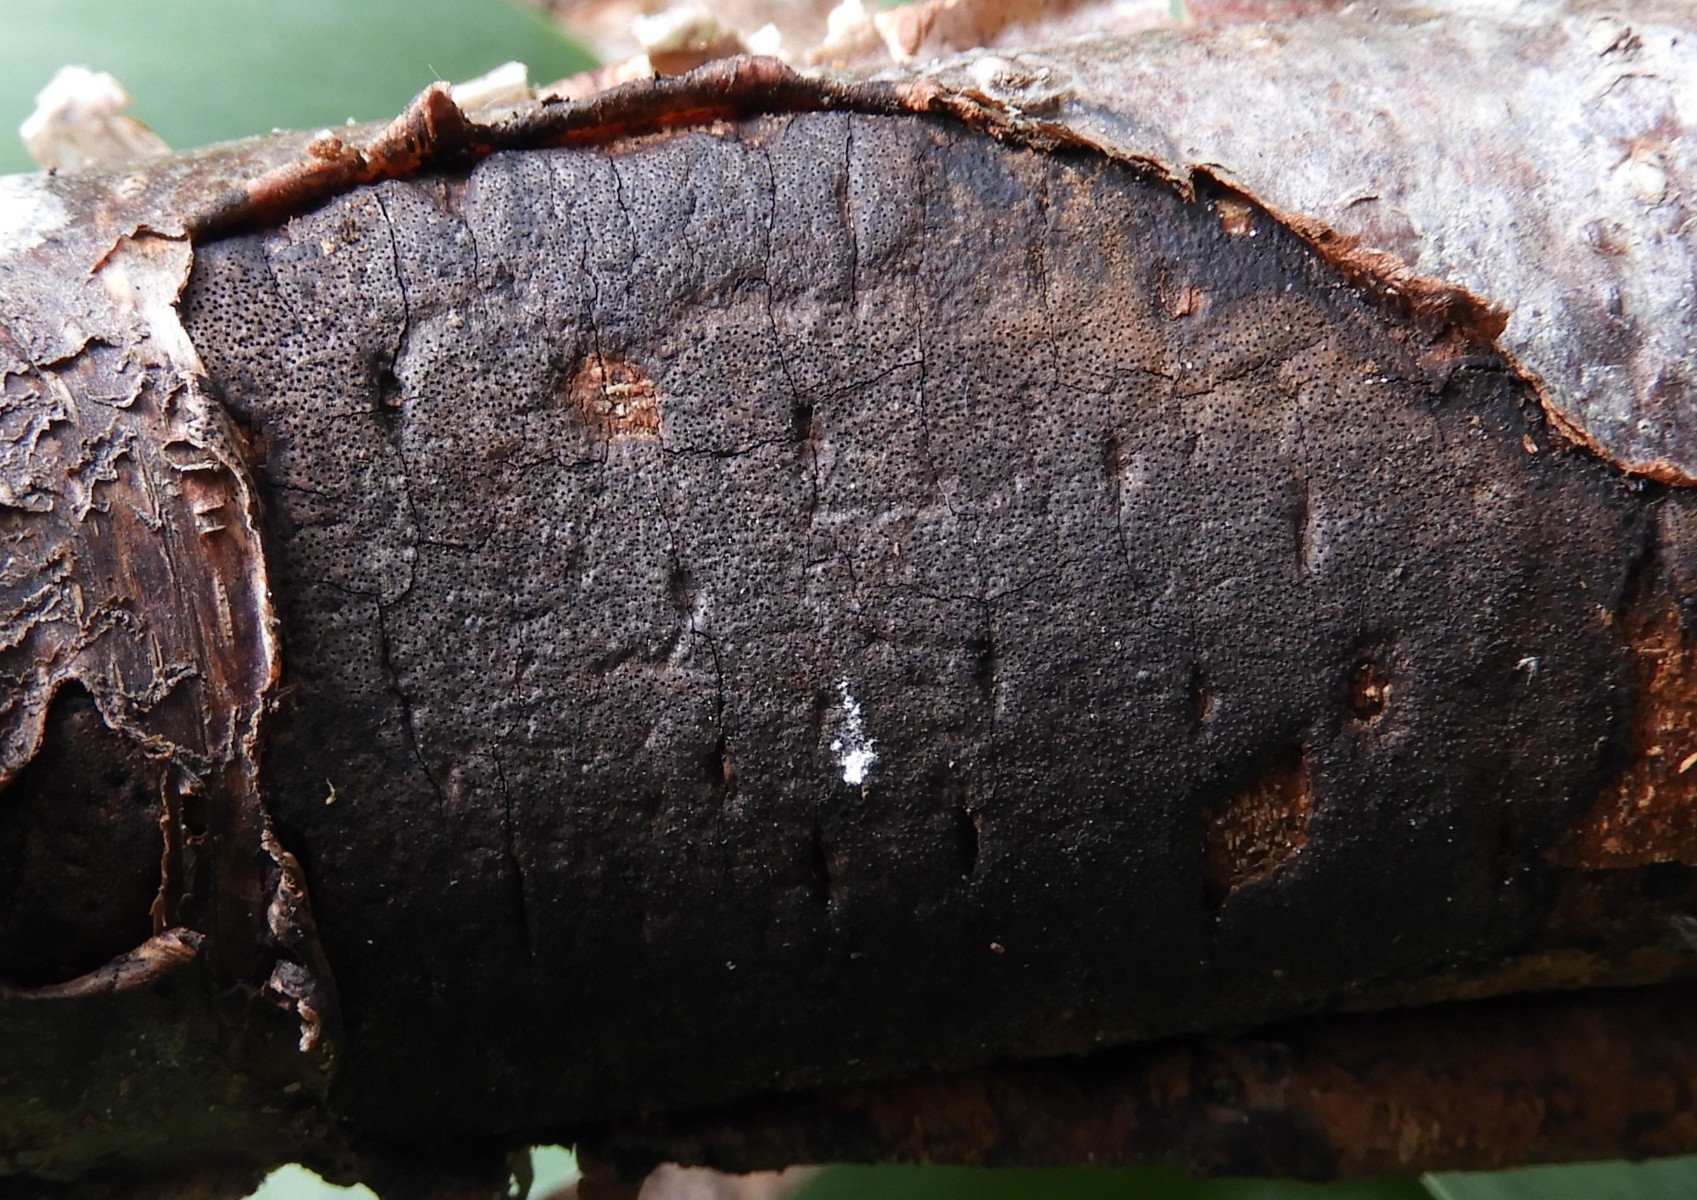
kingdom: Fungi
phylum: Ascomycota
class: Sordariomycetes
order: Xylariales
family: Diatrypaceae
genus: Diatrype
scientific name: Diatrype decorticata
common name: barksprænger-kulskorpe
